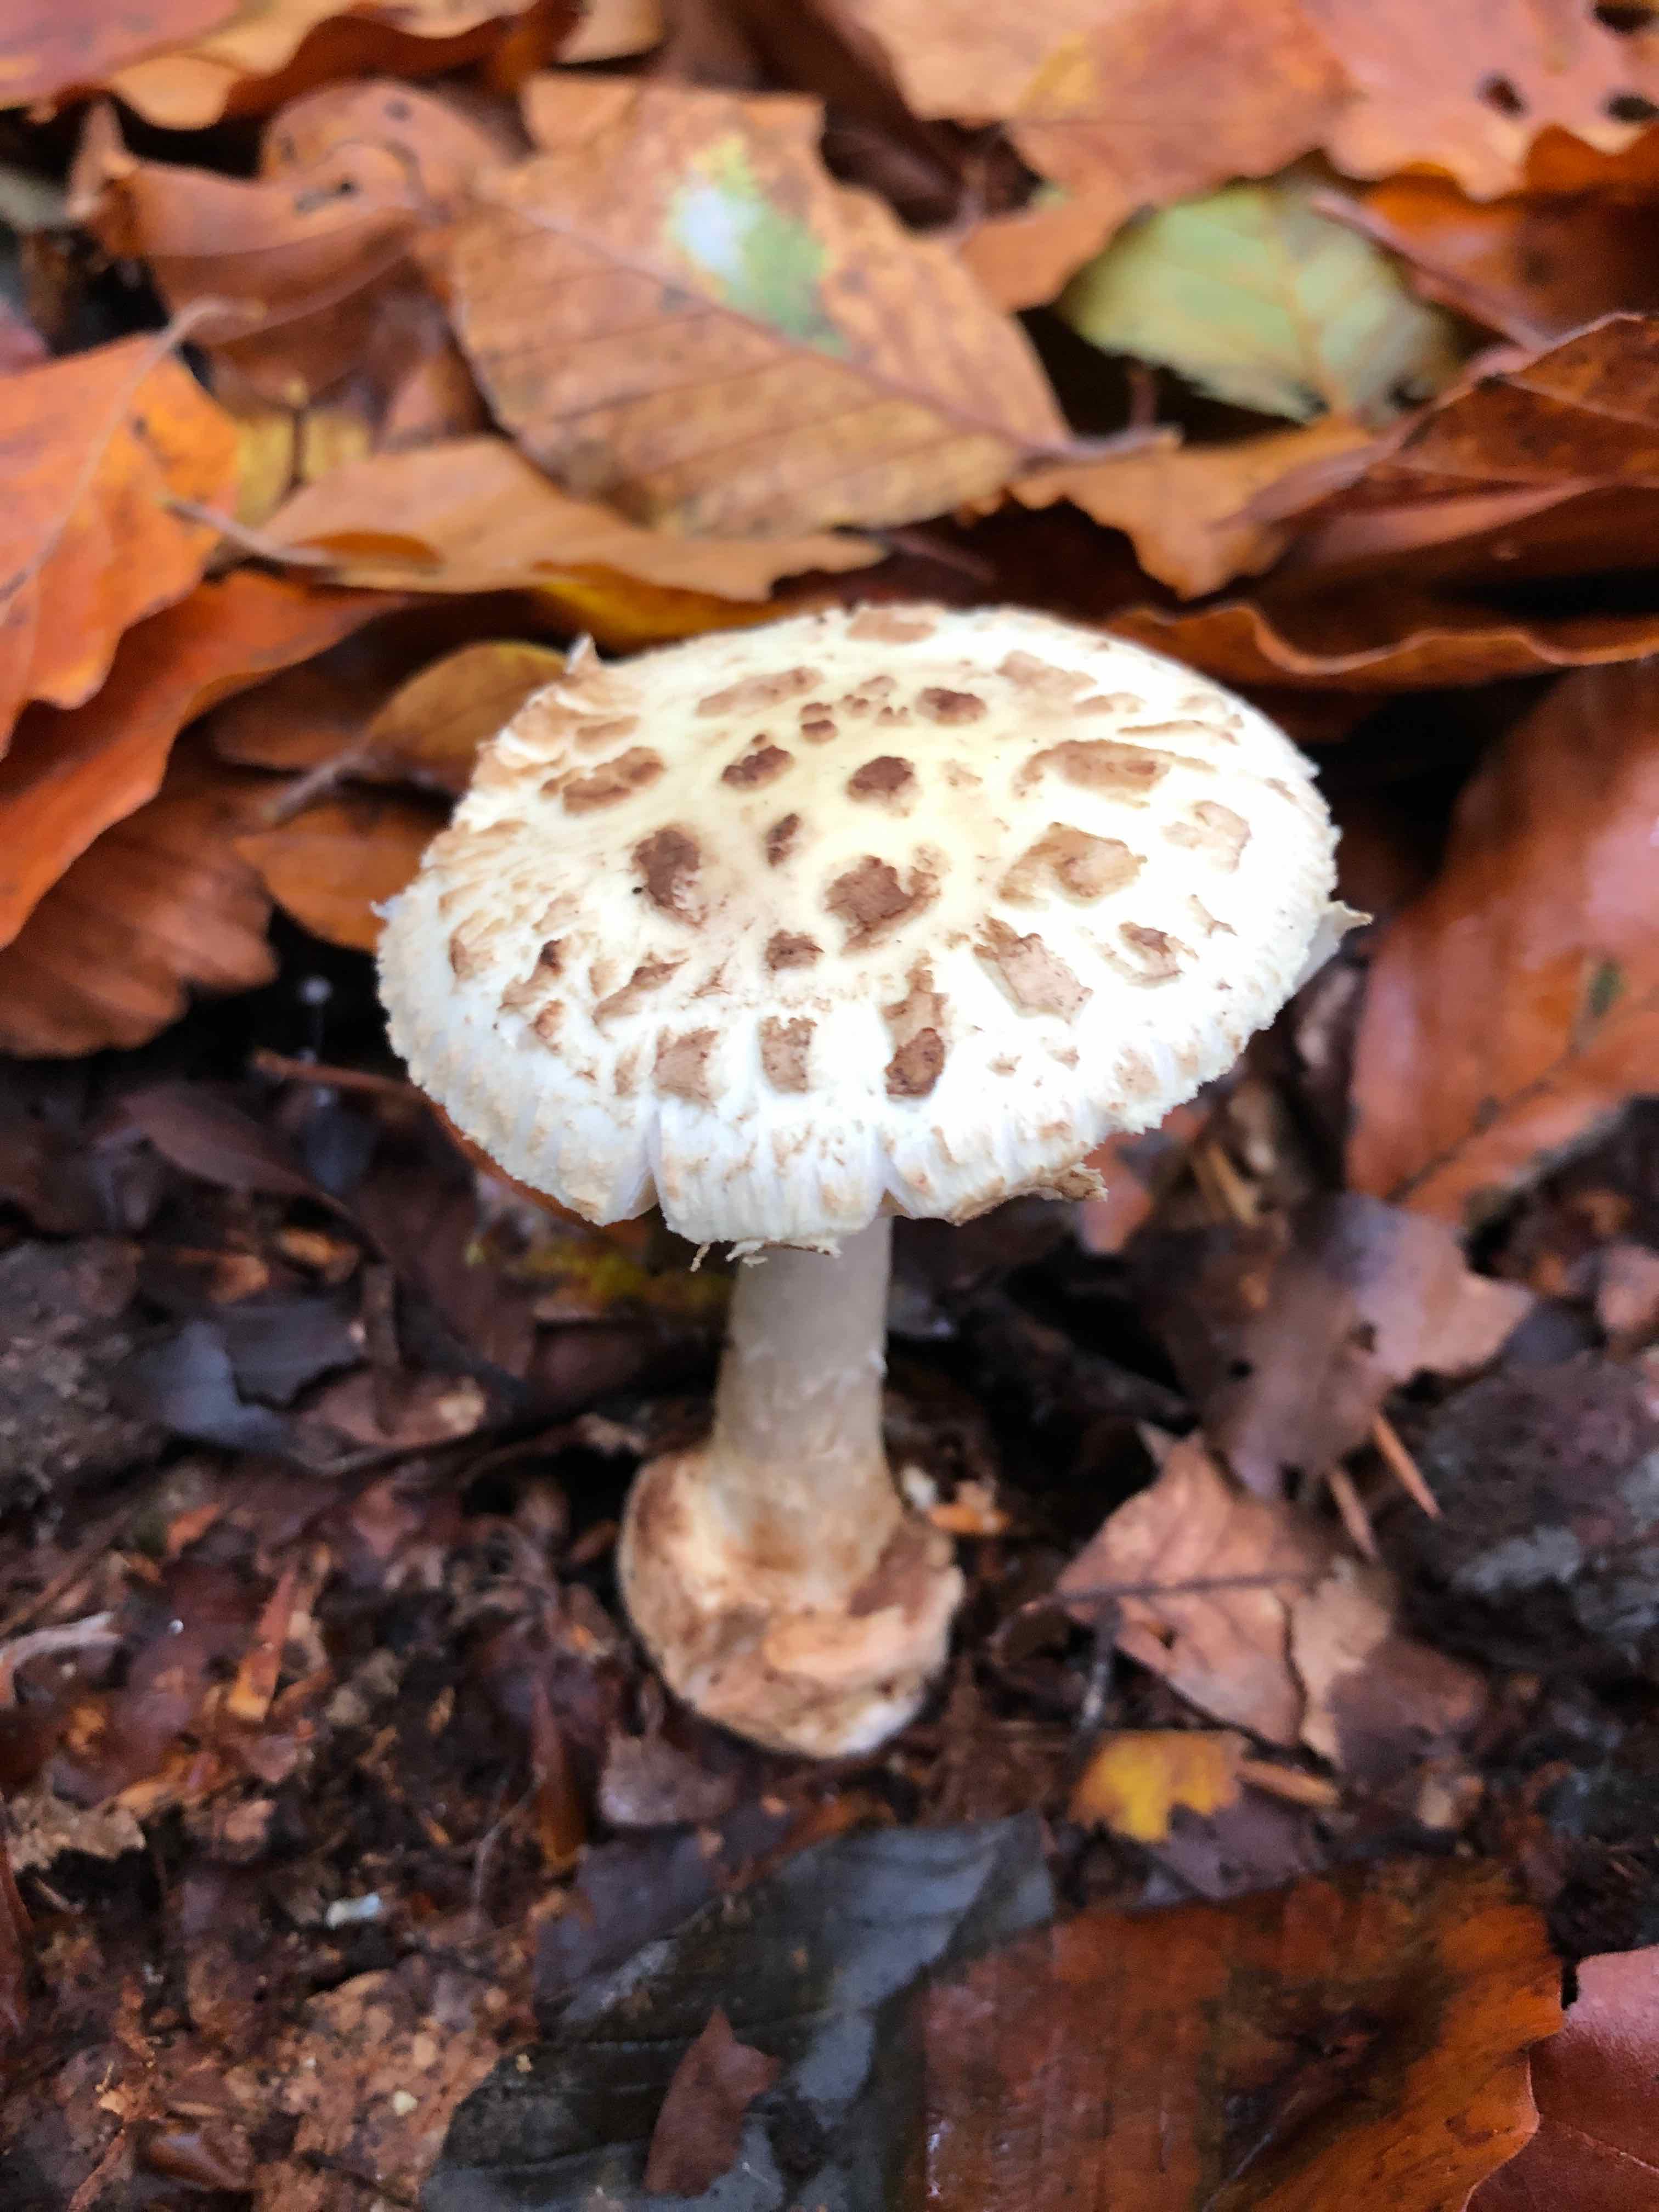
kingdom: Fungi
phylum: Basidiomycota
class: Agaricomycetes
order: Agaricales
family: Amanitaceae
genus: Amanita
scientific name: Amanita citrina
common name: kugleknoldet fluesvamp
